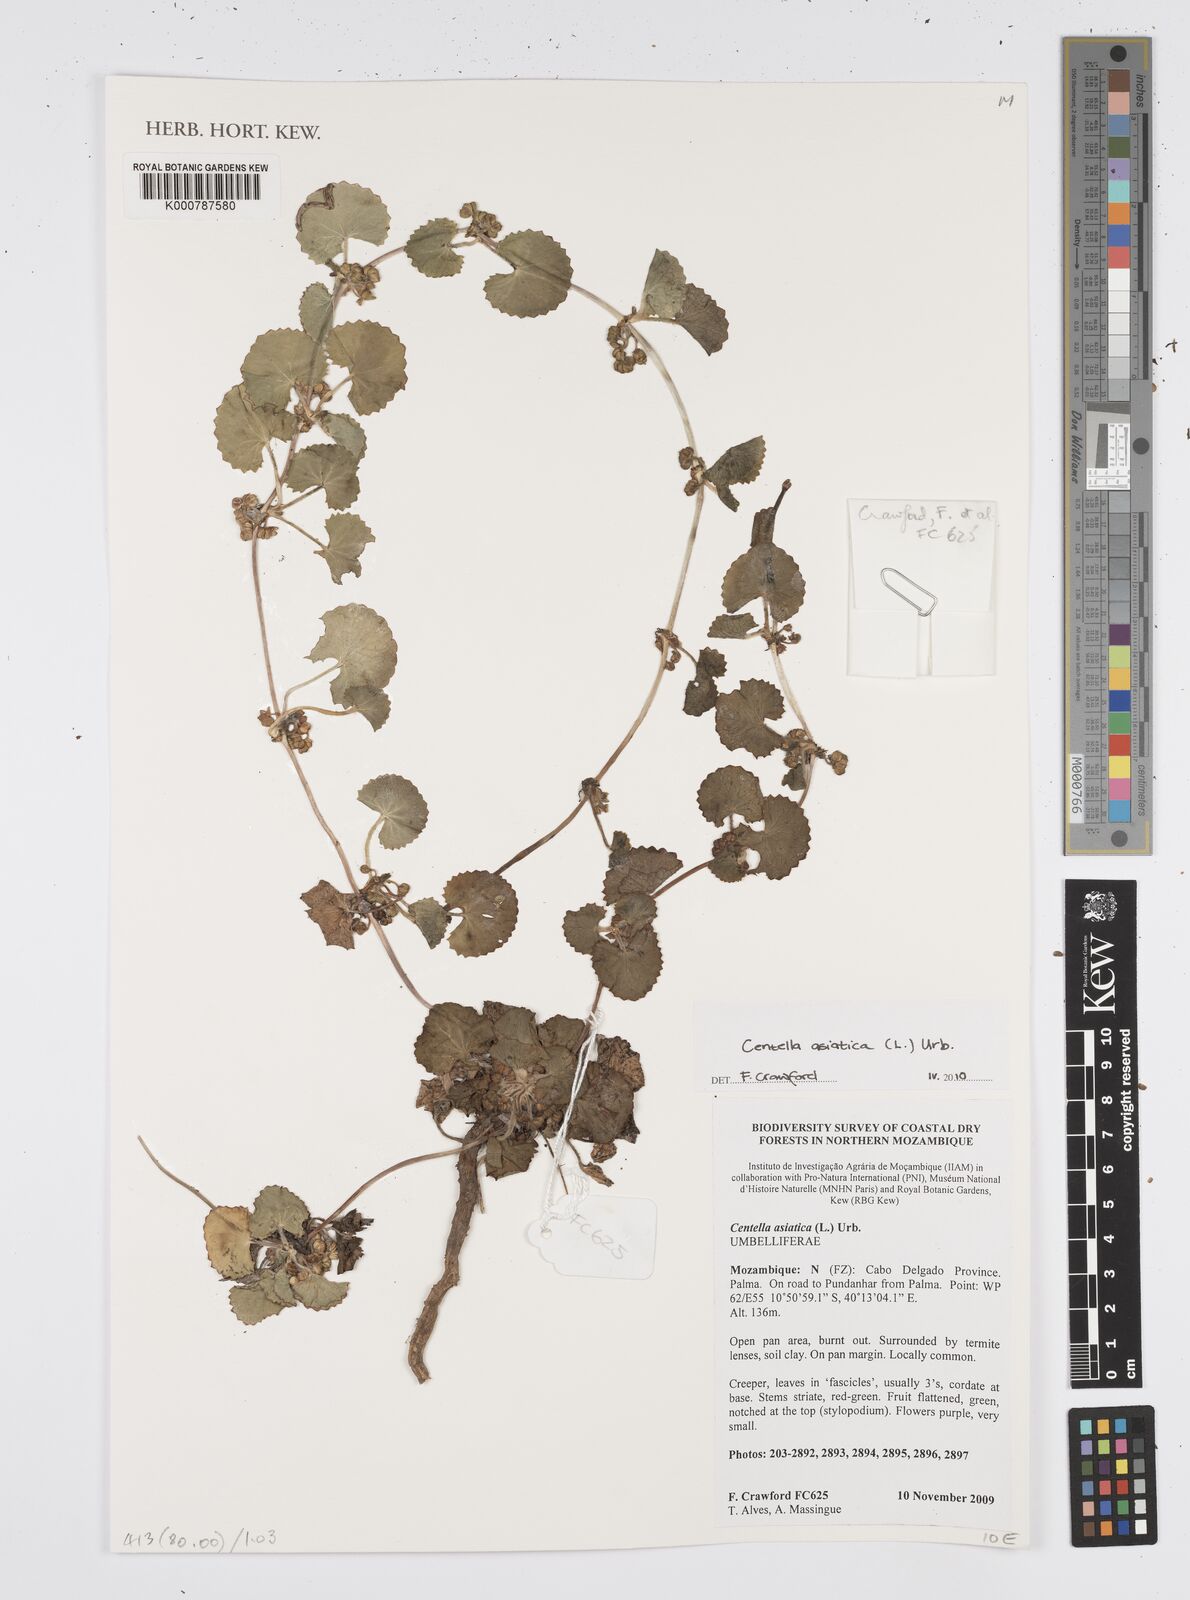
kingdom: Plantae
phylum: Tracheophyta
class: Magnoliopsida
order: Apiales
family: Apiaceae
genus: Centella
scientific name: Centella asiatica
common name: Spadeleaf
